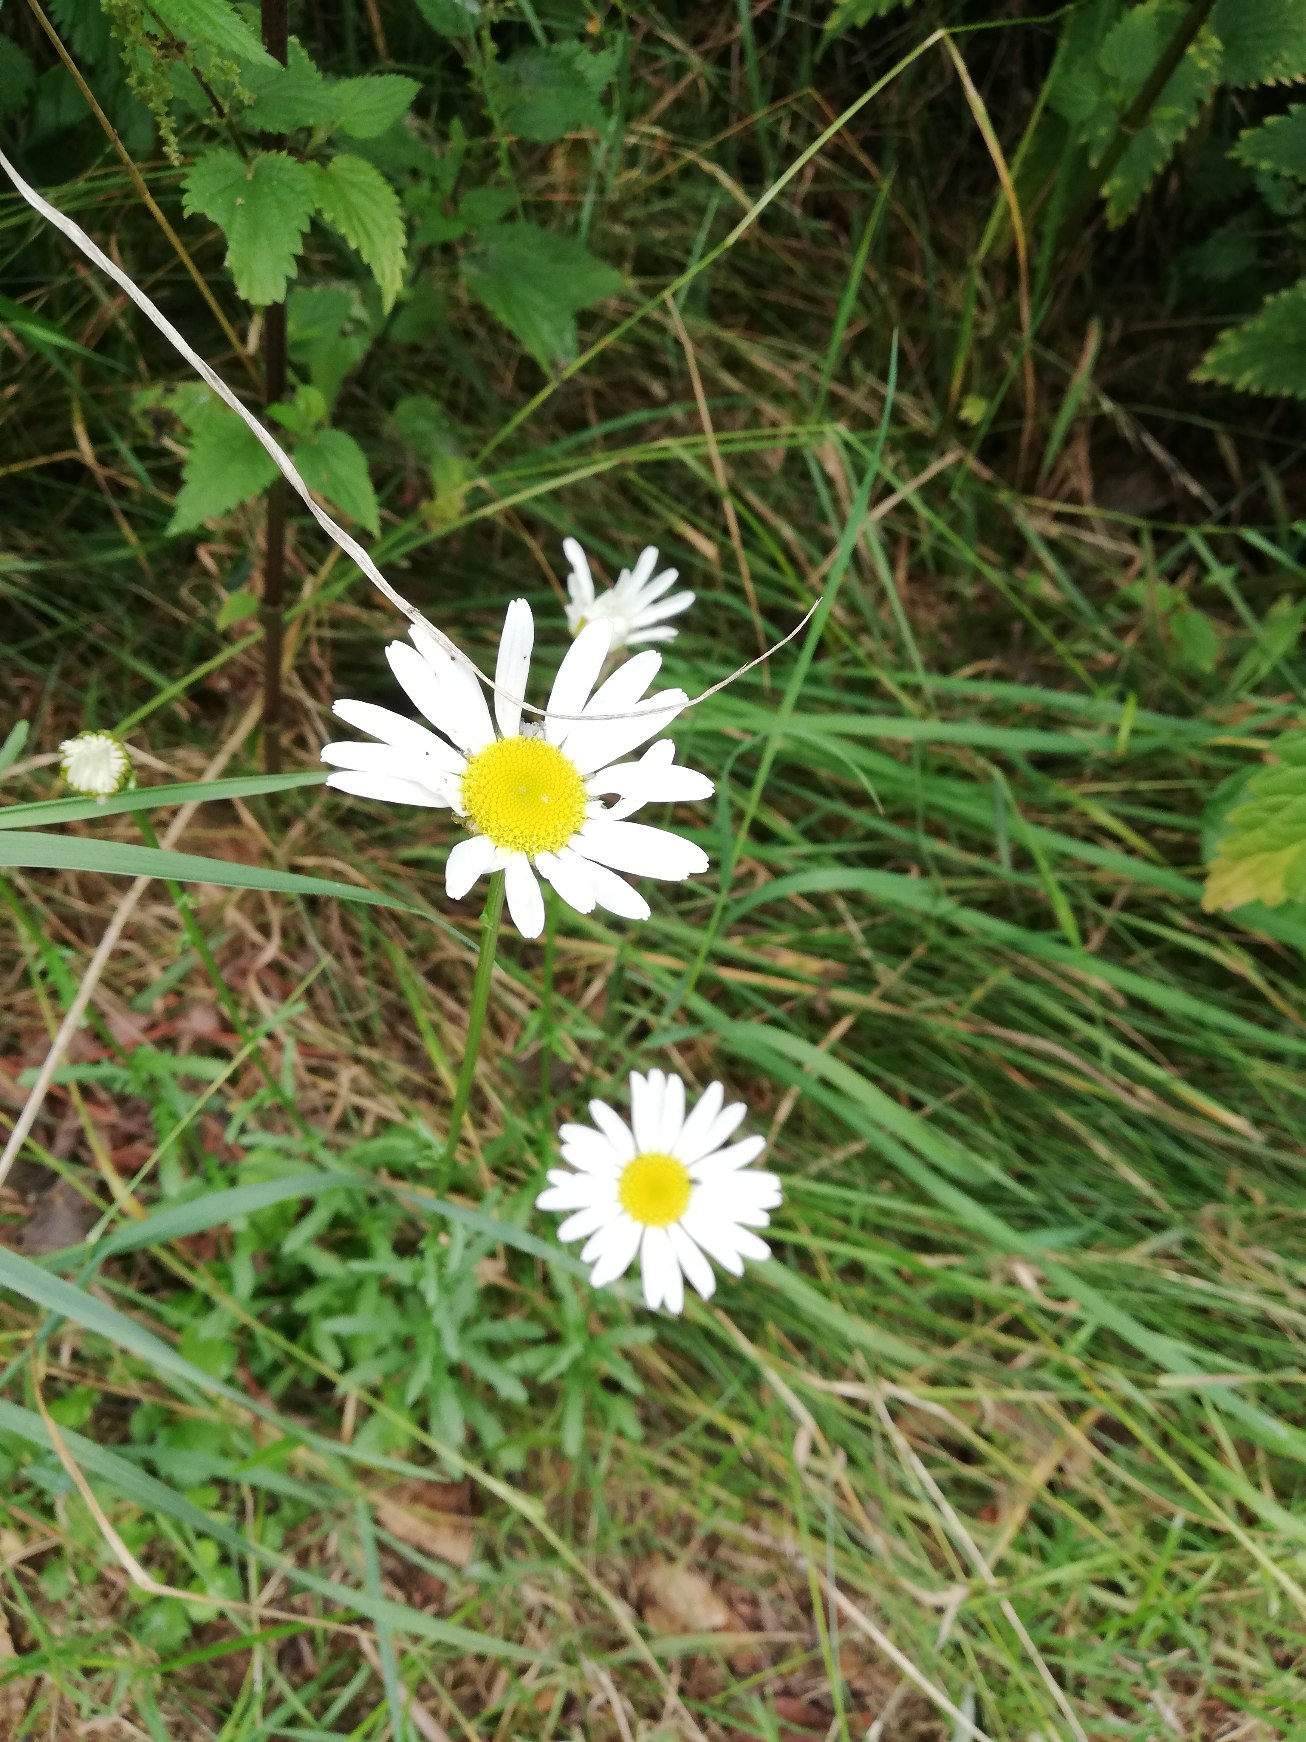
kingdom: Plantae
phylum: Tracheophyta
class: Magnoliopsida
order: Asterales
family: Asteraceae
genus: Leucanthemum
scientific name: Leucanthemum vulgare
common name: Hvid okseøje
